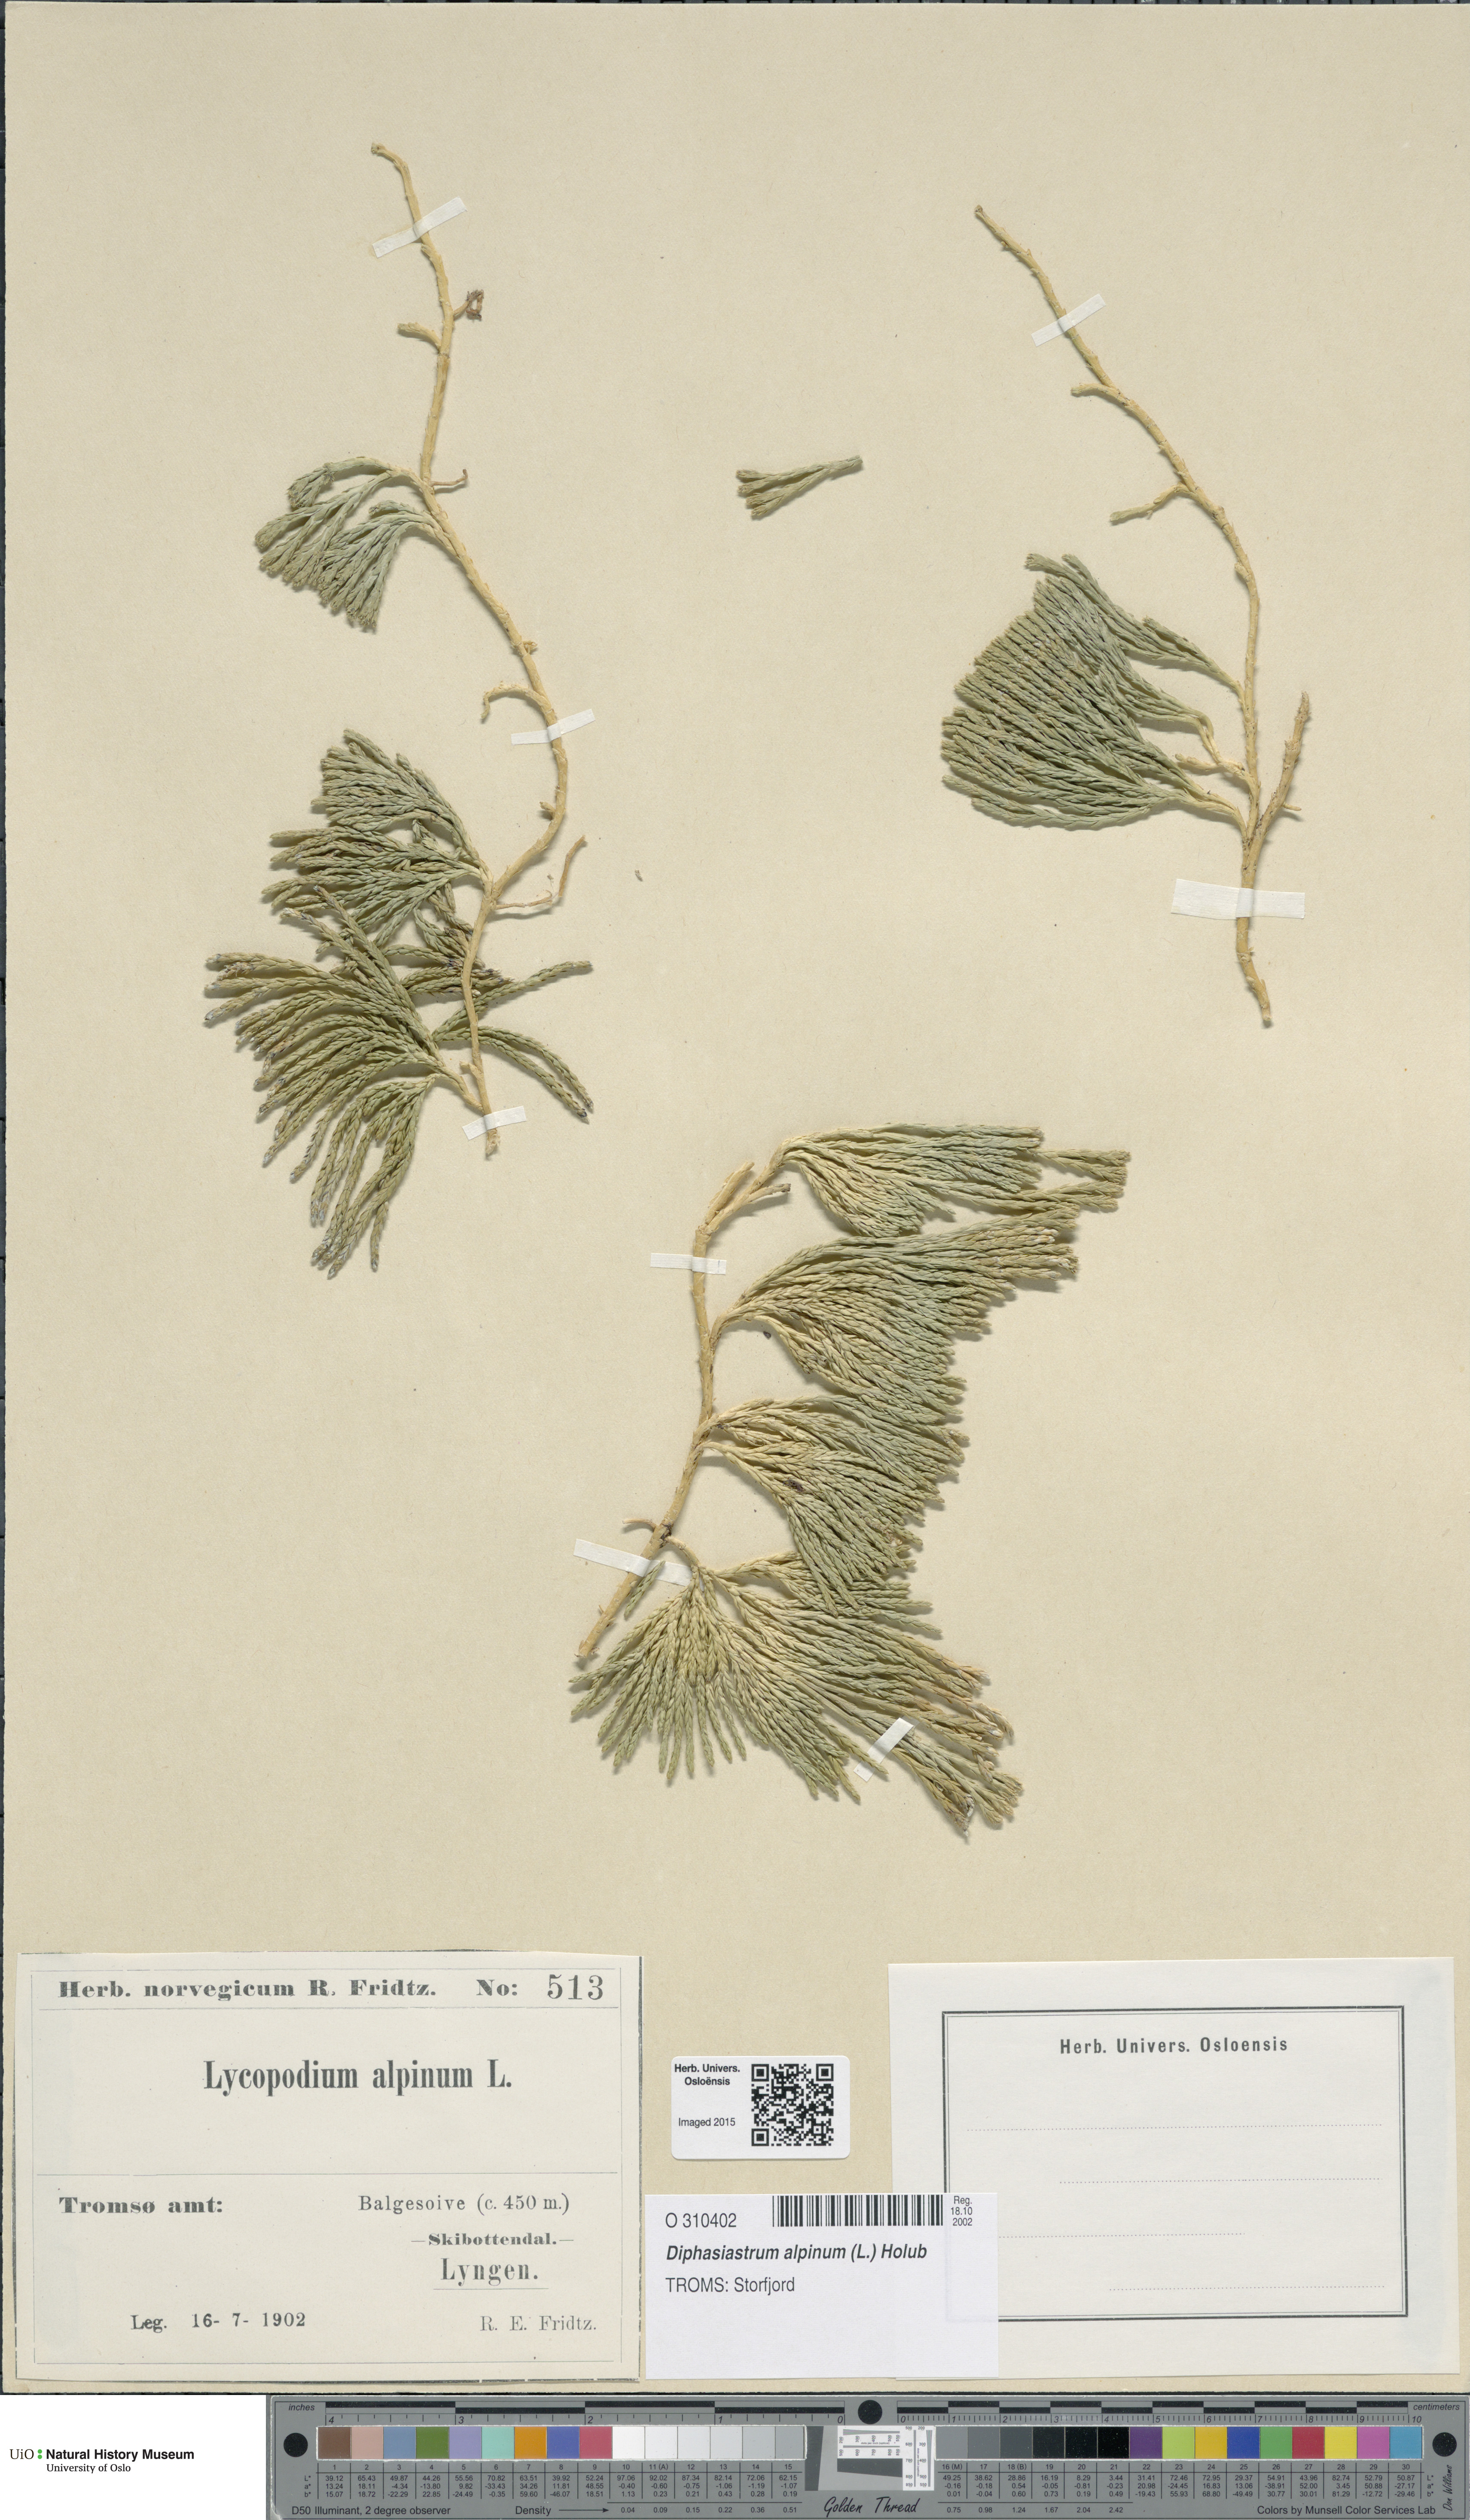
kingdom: Plantae
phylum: Tracheophyta
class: Lycopodiopsida
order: Lycopodiales
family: Lycopodiaceae
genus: Diphasiastrum
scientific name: Diphasiastrum alpinum
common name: Alpine clubmoss
